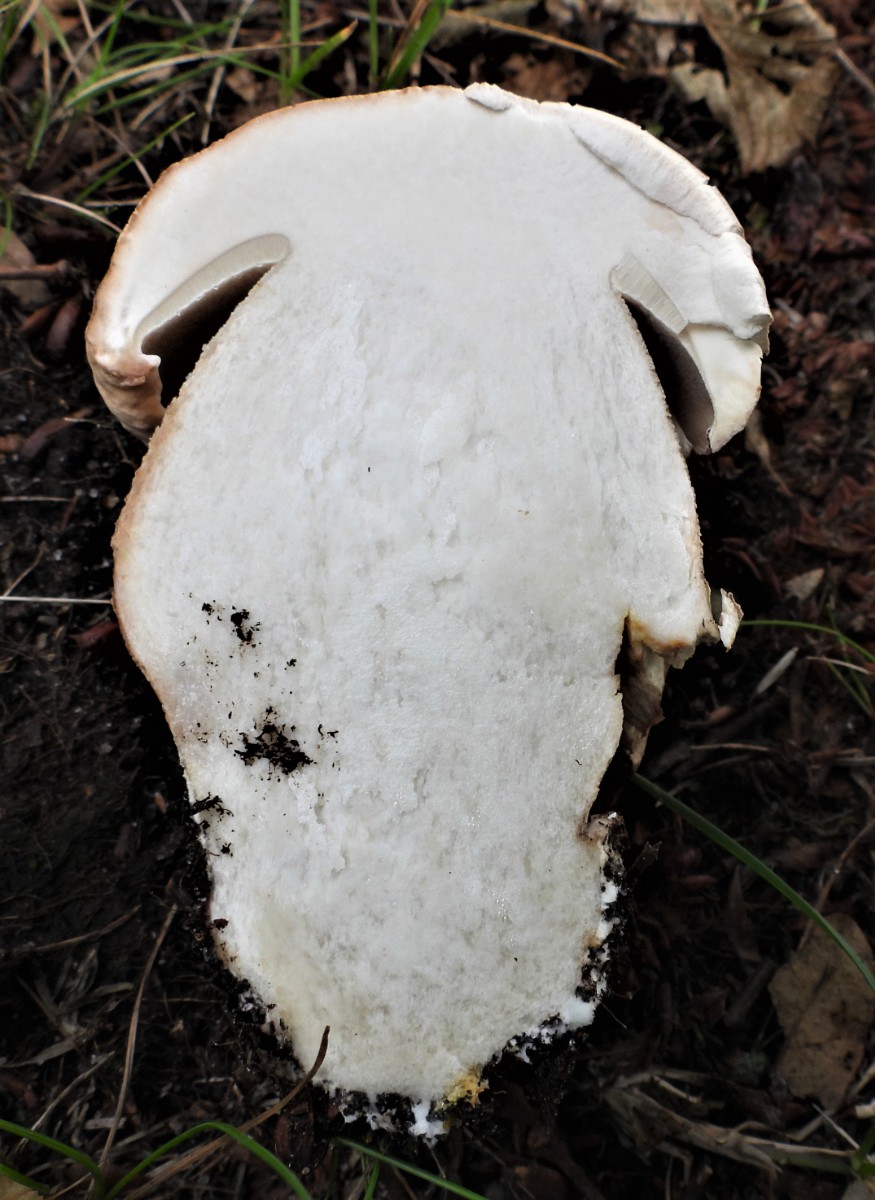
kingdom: Fungi
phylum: Basidiomycota
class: Agaricomycetes
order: Boletales
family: Boletaceae
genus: Boletus
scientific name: Boletus reticulatus
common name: sommer-rørhat
